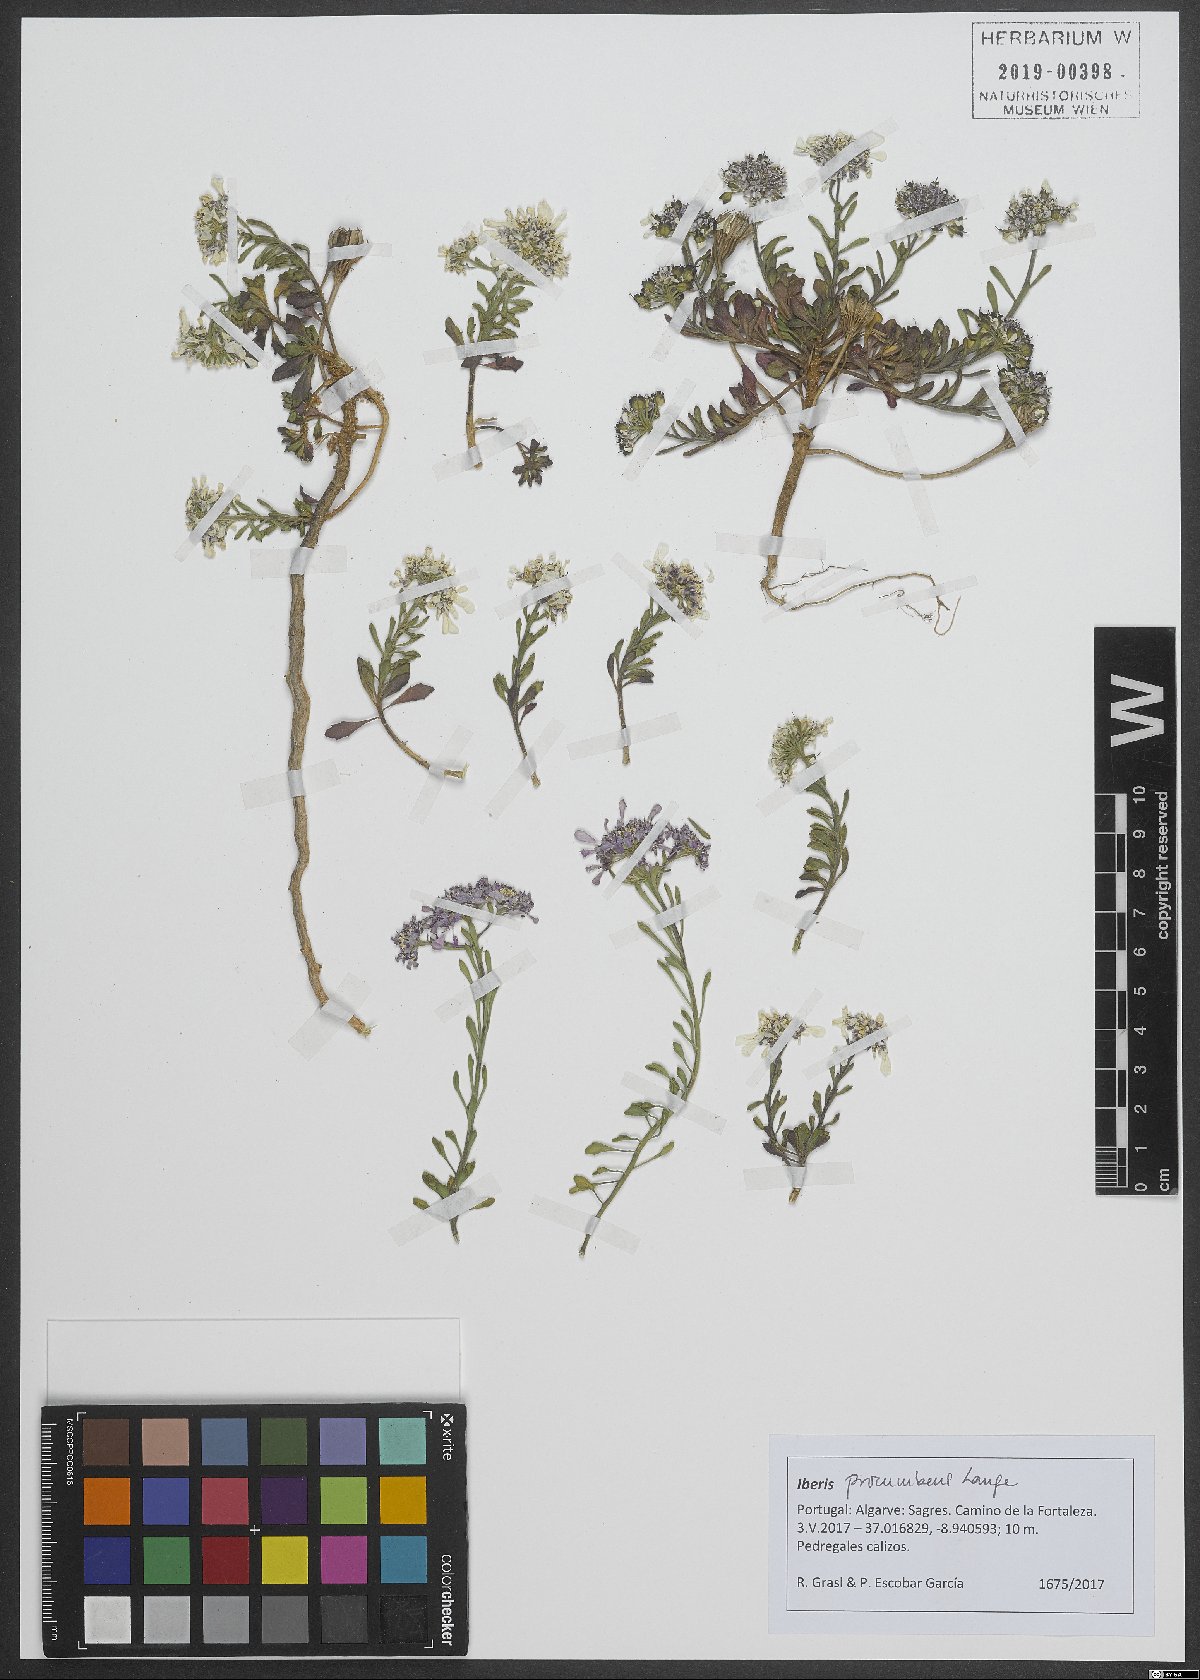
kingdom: Plantae
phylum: Tracheophyta
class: Magnoliopsida
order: Brassicales
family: Brassicaceae
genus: Iberis
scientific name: Iberis procumbens
